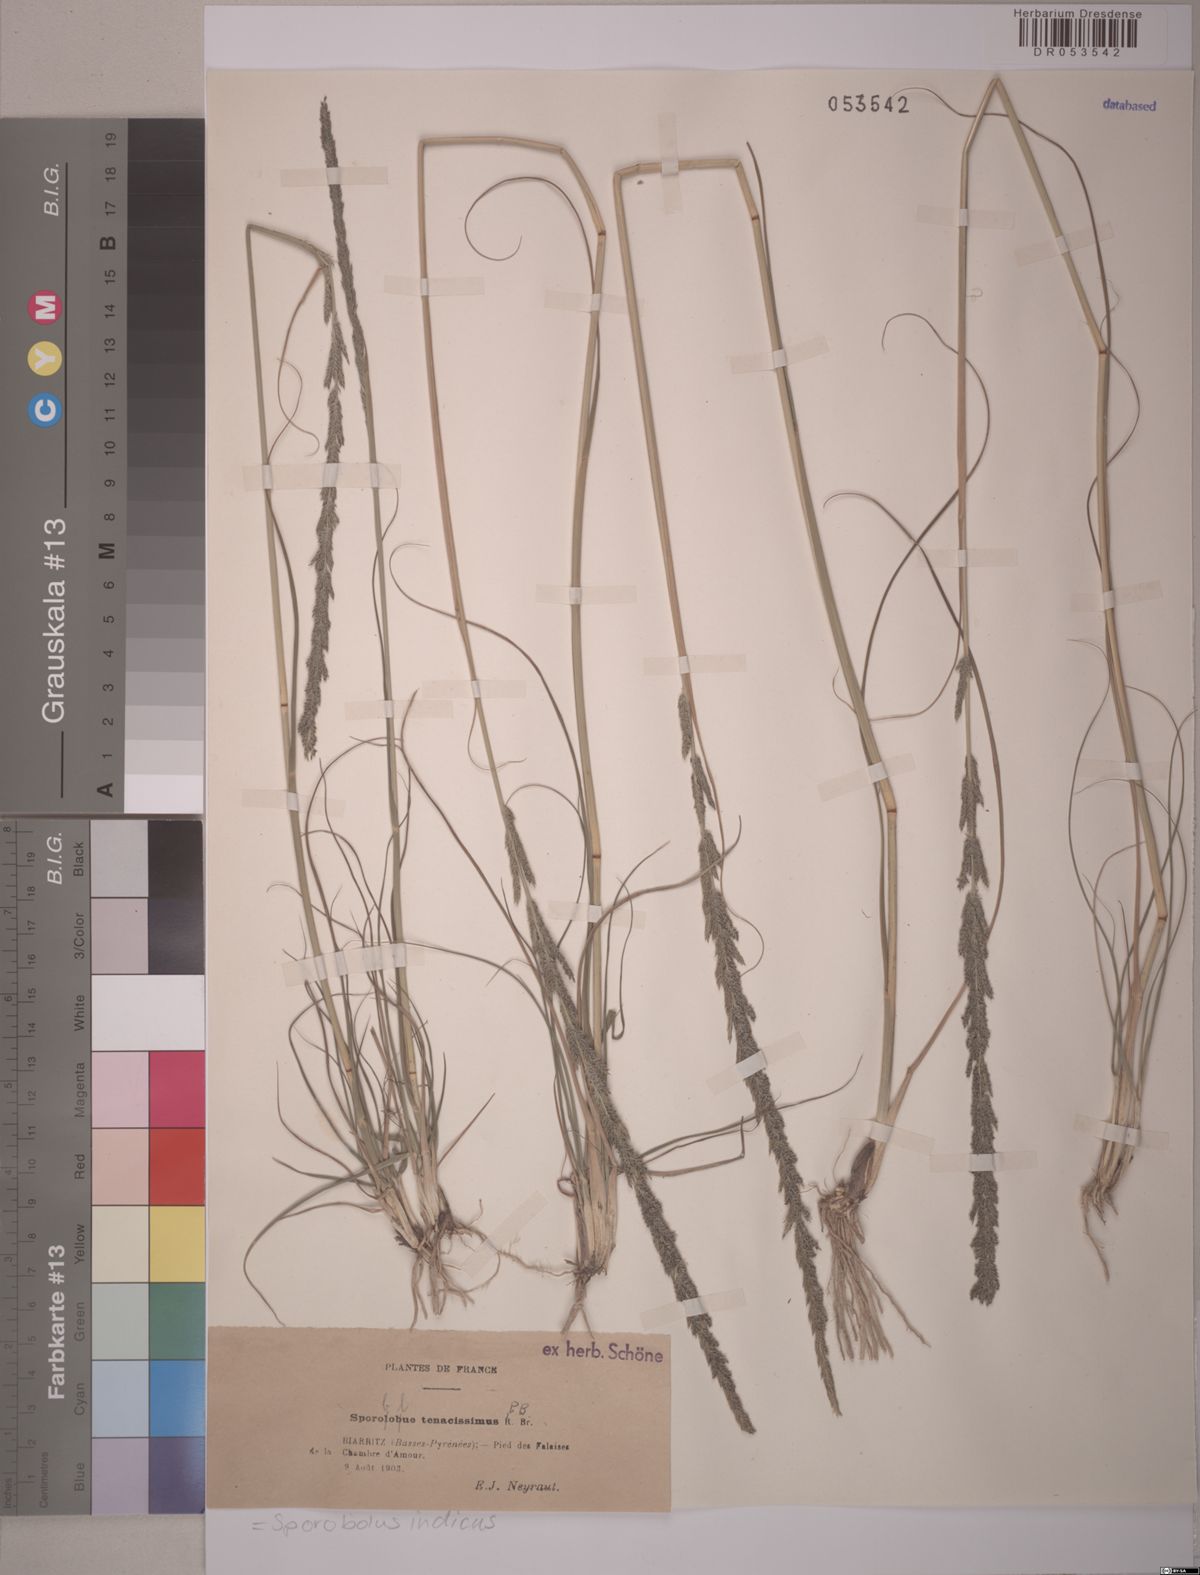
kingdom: Plantae
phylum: Tracheophyta
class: Liliopsida
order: Poales
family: Poaceae
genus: Sporobolus
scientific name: Sporobolus indicus
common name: Smut grass
